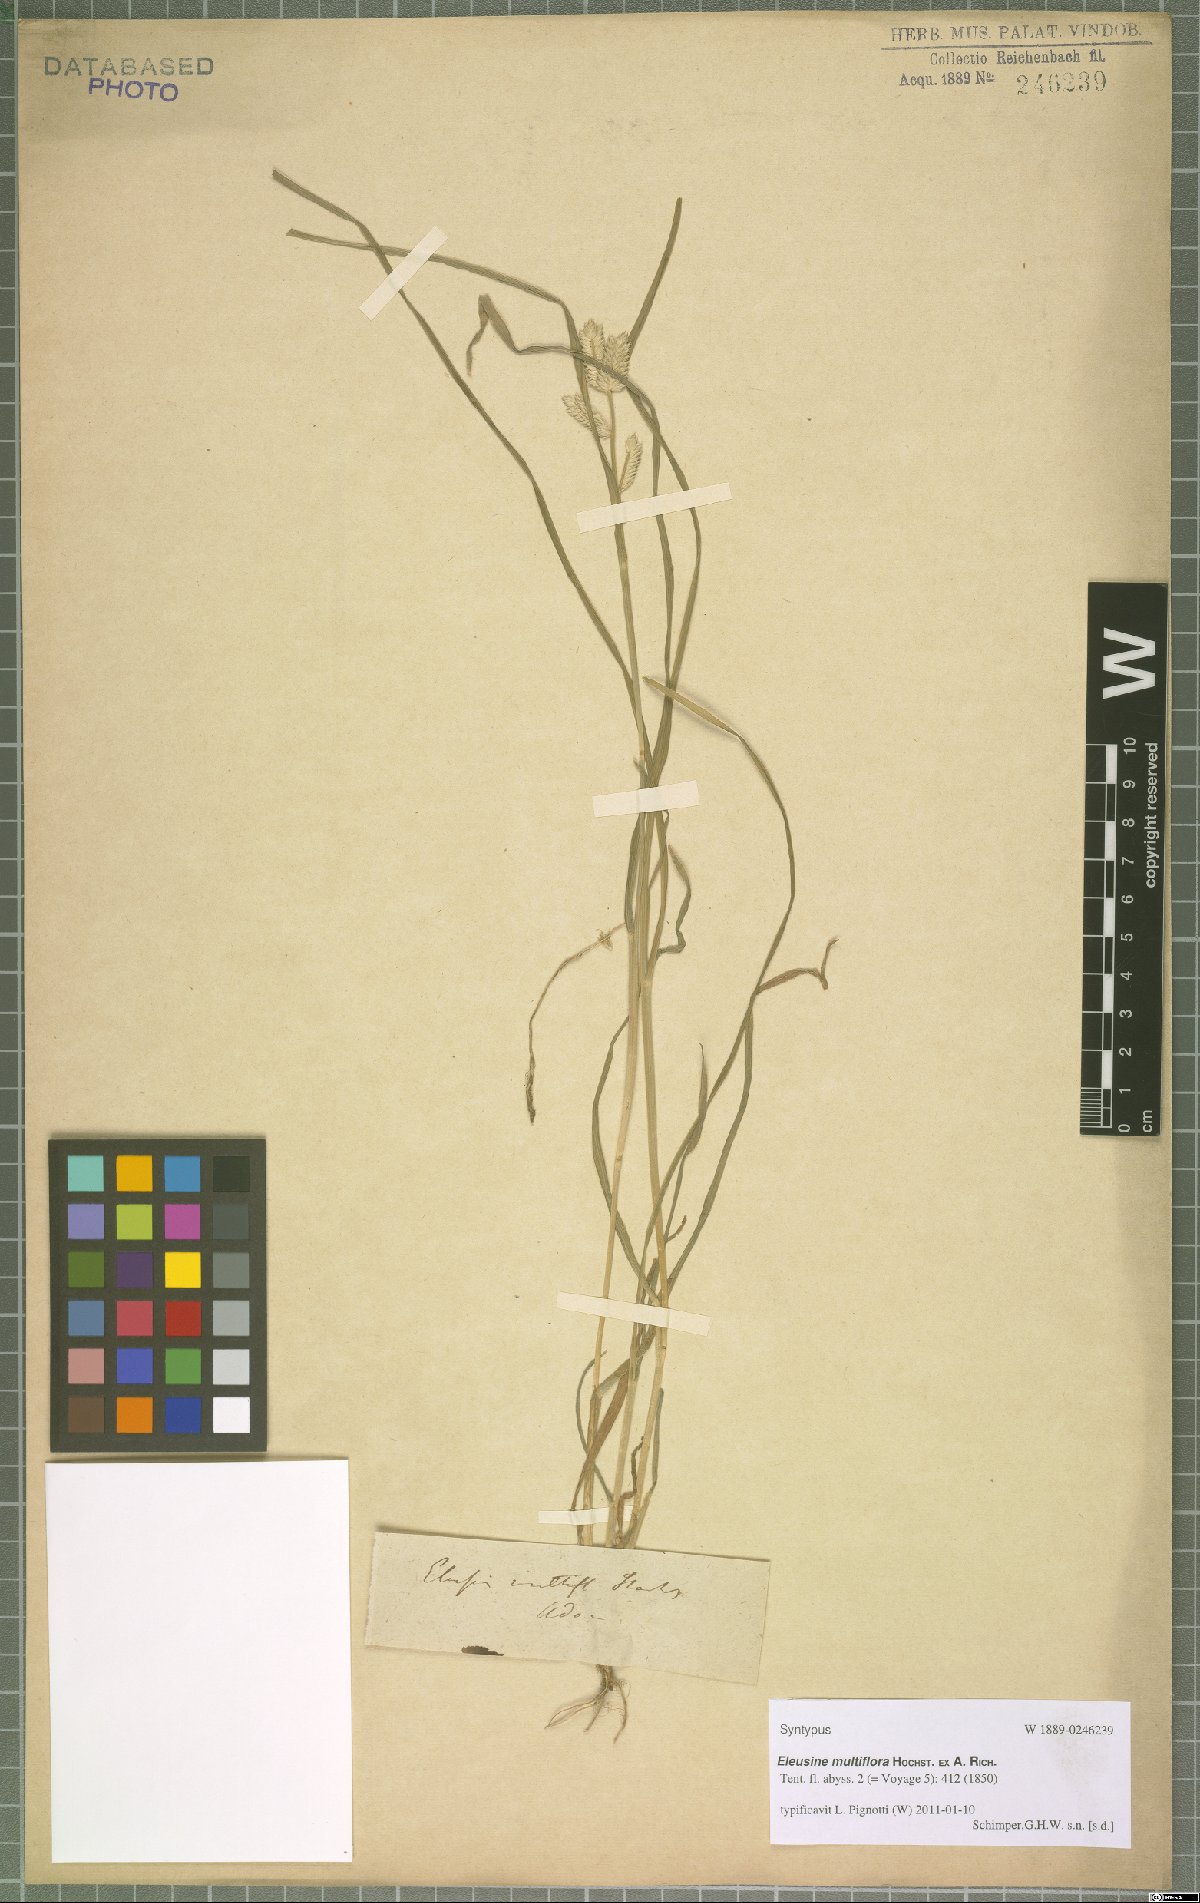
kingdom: Plantae
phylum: Tracheophyta
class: Liliopsida
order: Poales
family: Poaceae
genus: Eleusine
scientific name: Eleusine multiflora
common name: Fat-spiked yard-grass
